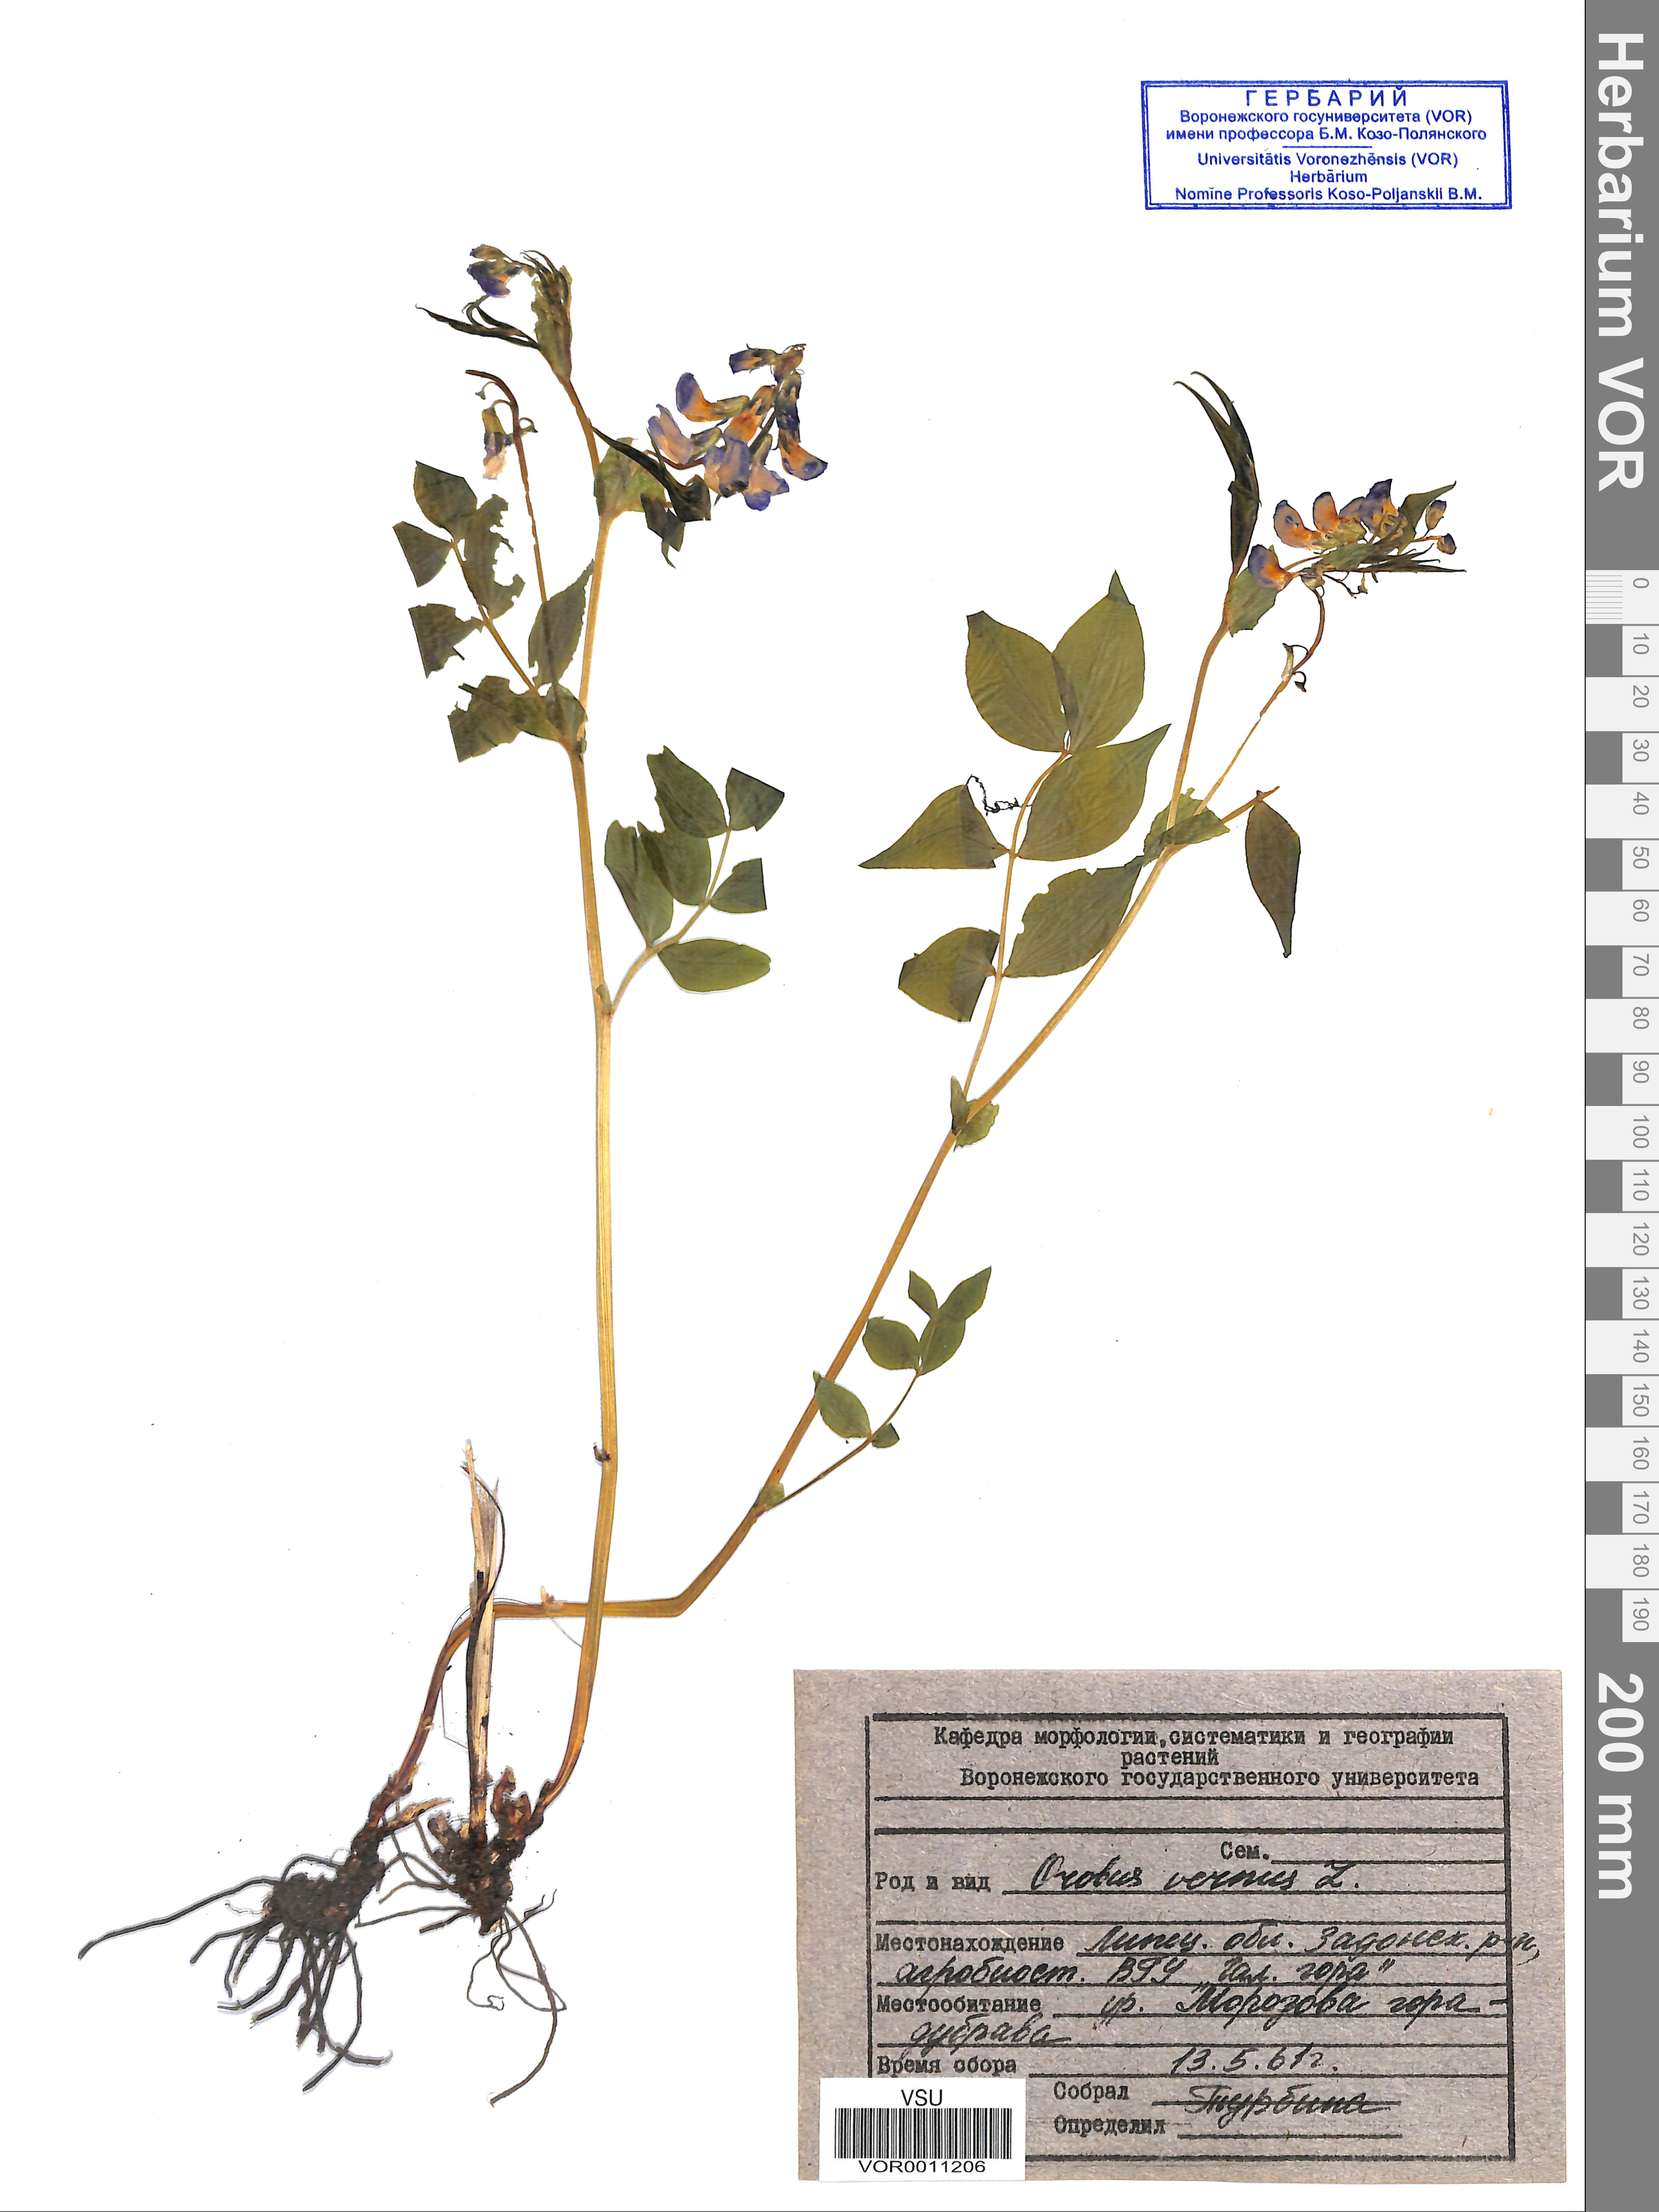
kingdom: Plantae
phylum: Tracheophyta
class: Magnoliopsida
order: Fabales
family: Fabaceae
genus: Lathyrus
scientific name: Lathyrus vernus
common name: Spring pea
